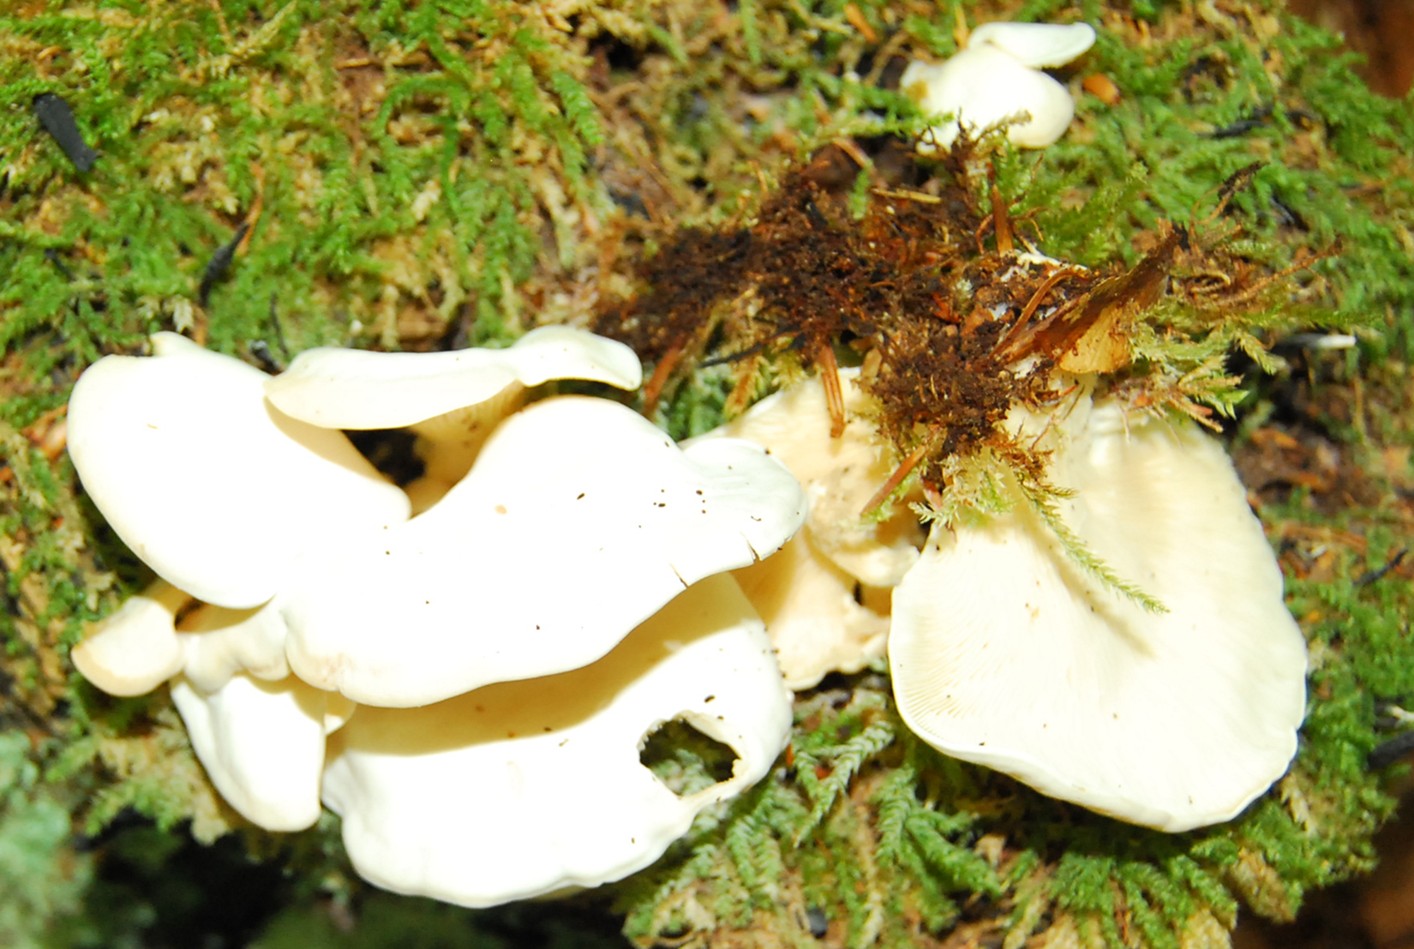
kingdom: Fungi
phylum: Basidiomycota
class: Agaricomycetes
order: Agaricales
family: Marasmiaceae
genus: Pleurocybella
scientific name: Pleurocybella porrigens
